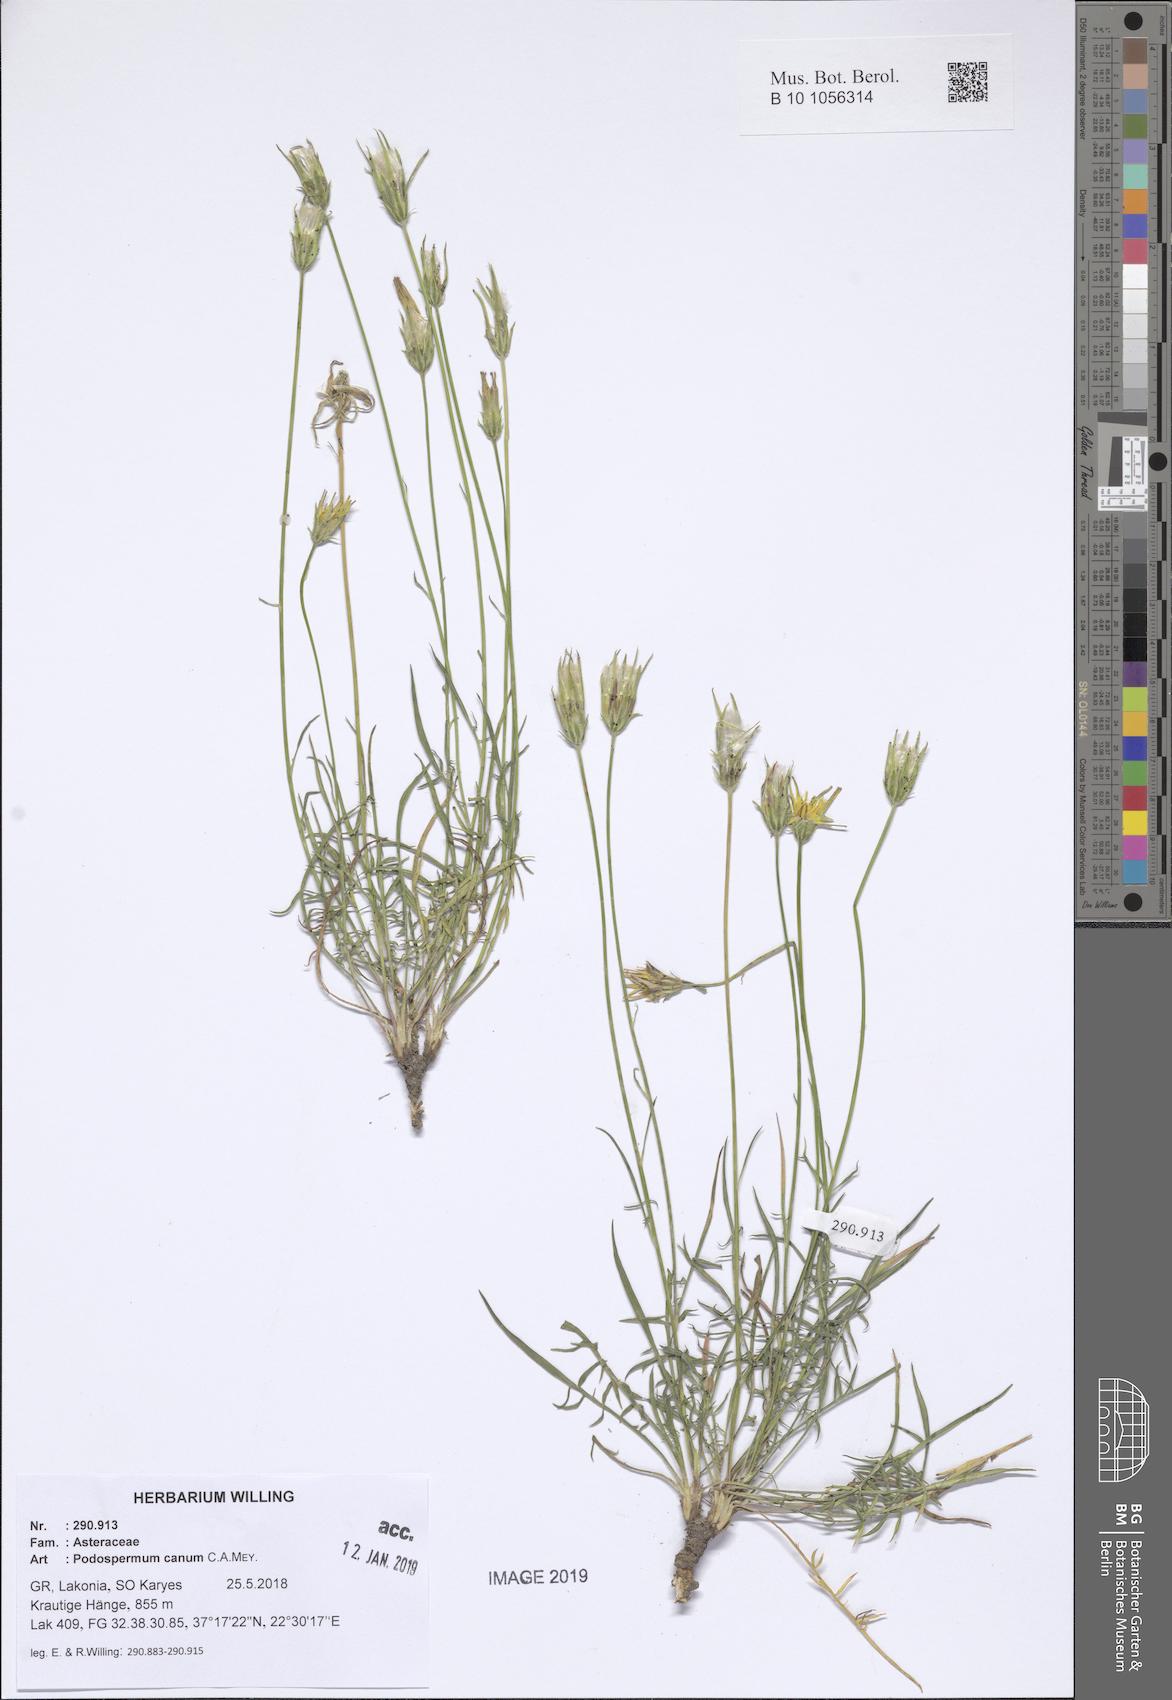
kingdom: Plantae
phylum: Tracheophyta
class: Magnoliopsida
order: Asterales
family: Asteraceae
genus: Scorzonera
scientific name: Scorzonera cana
